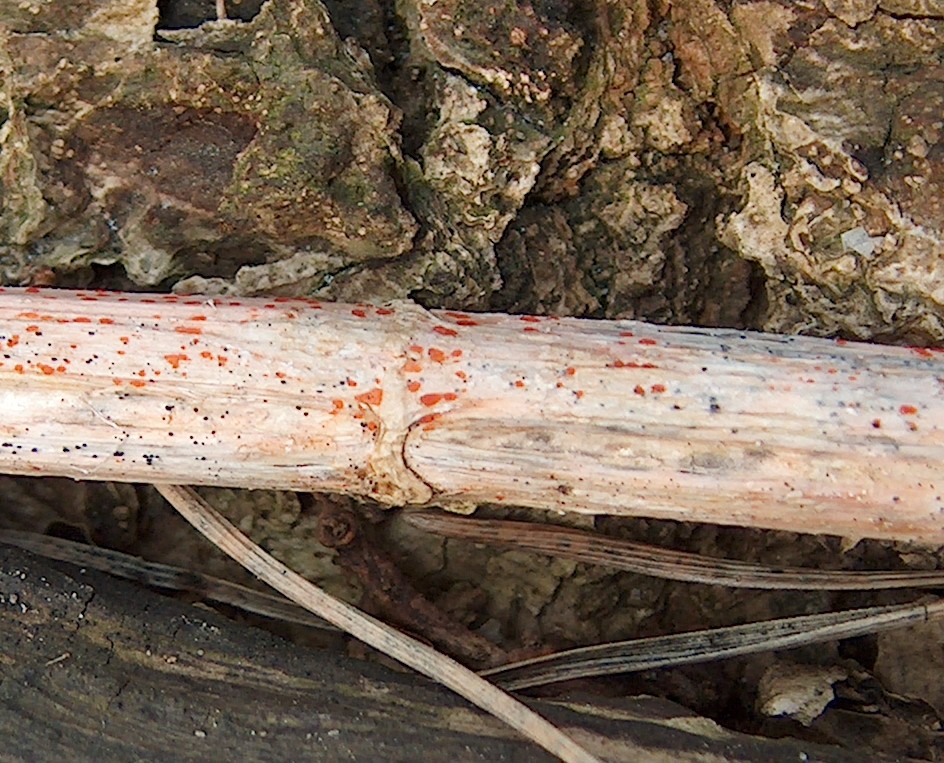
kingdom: Fungi
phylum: Ascomycota
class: Leotiomycetes
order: Helotiales
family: Calloriaceae
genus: Calloria
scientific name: Calloria urticae
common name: nælde-orangeskive
